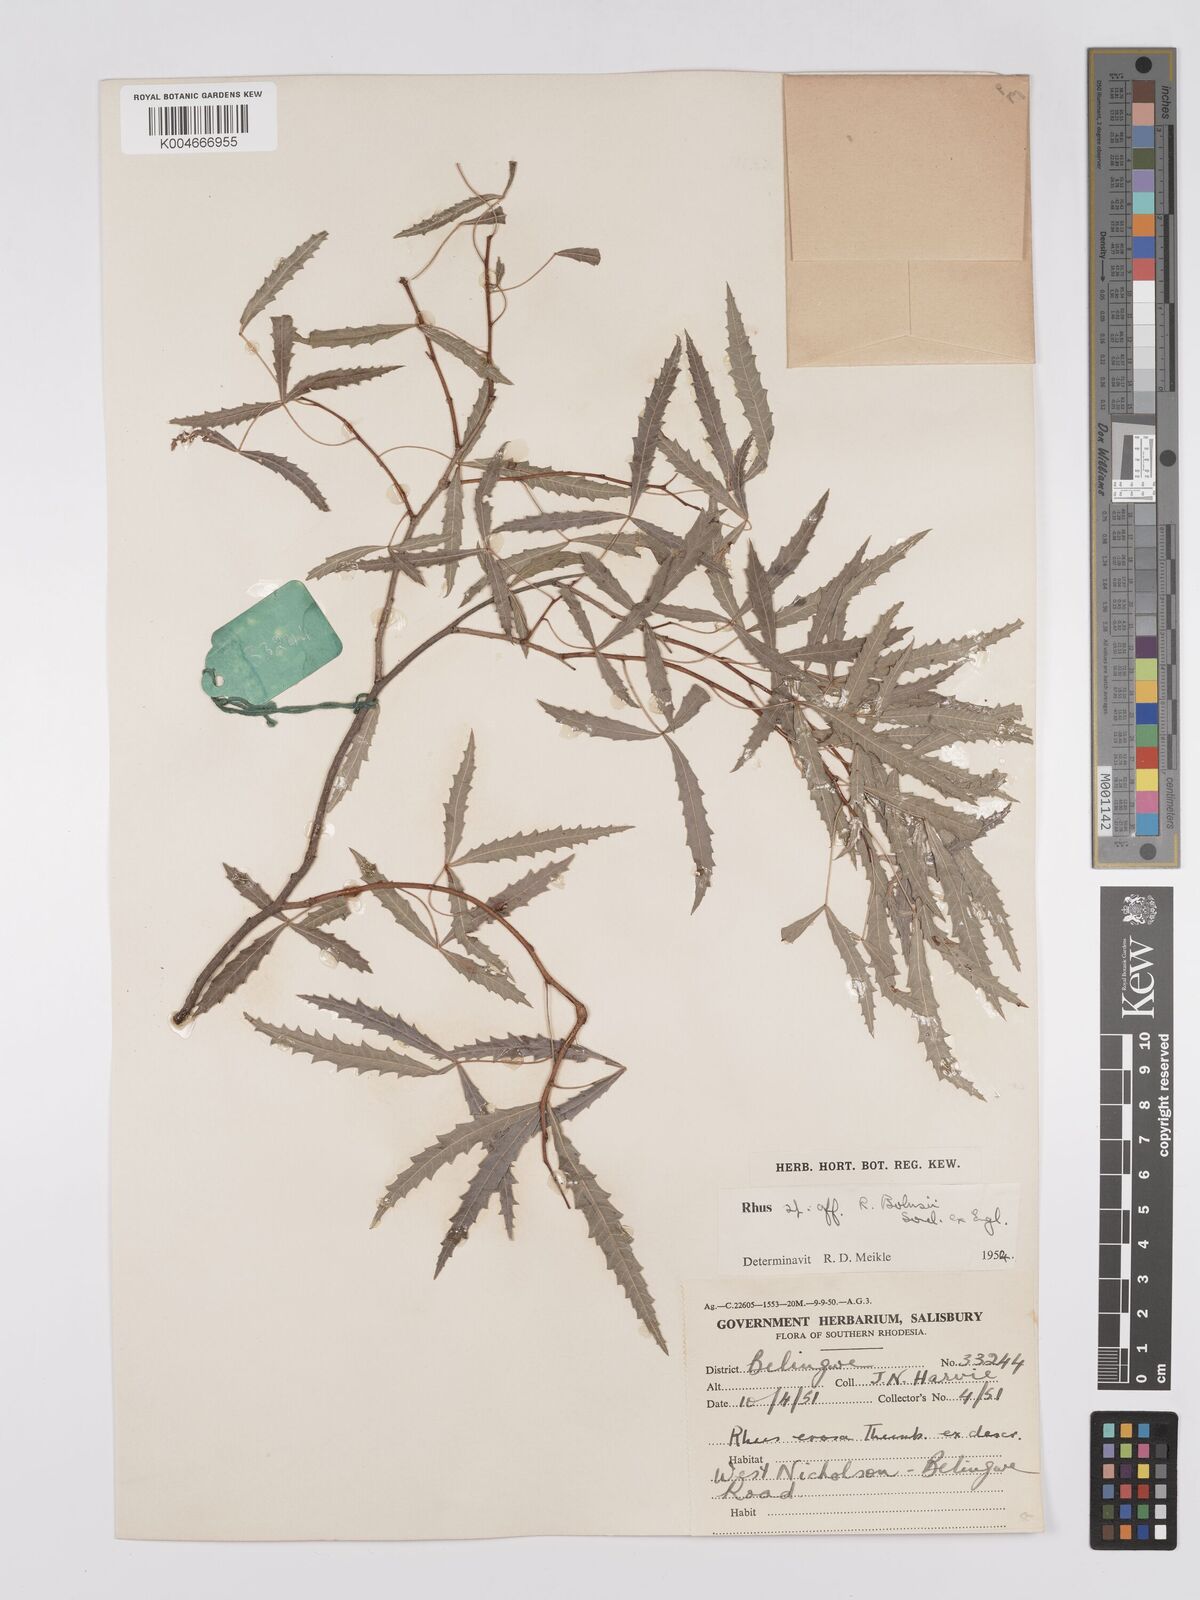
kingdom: Plantae
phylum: Tracheophyta
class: Magnoliopsida
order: Sapindales
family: Anacardiaceae
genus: Searsia
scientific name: Searsia tenuipes
